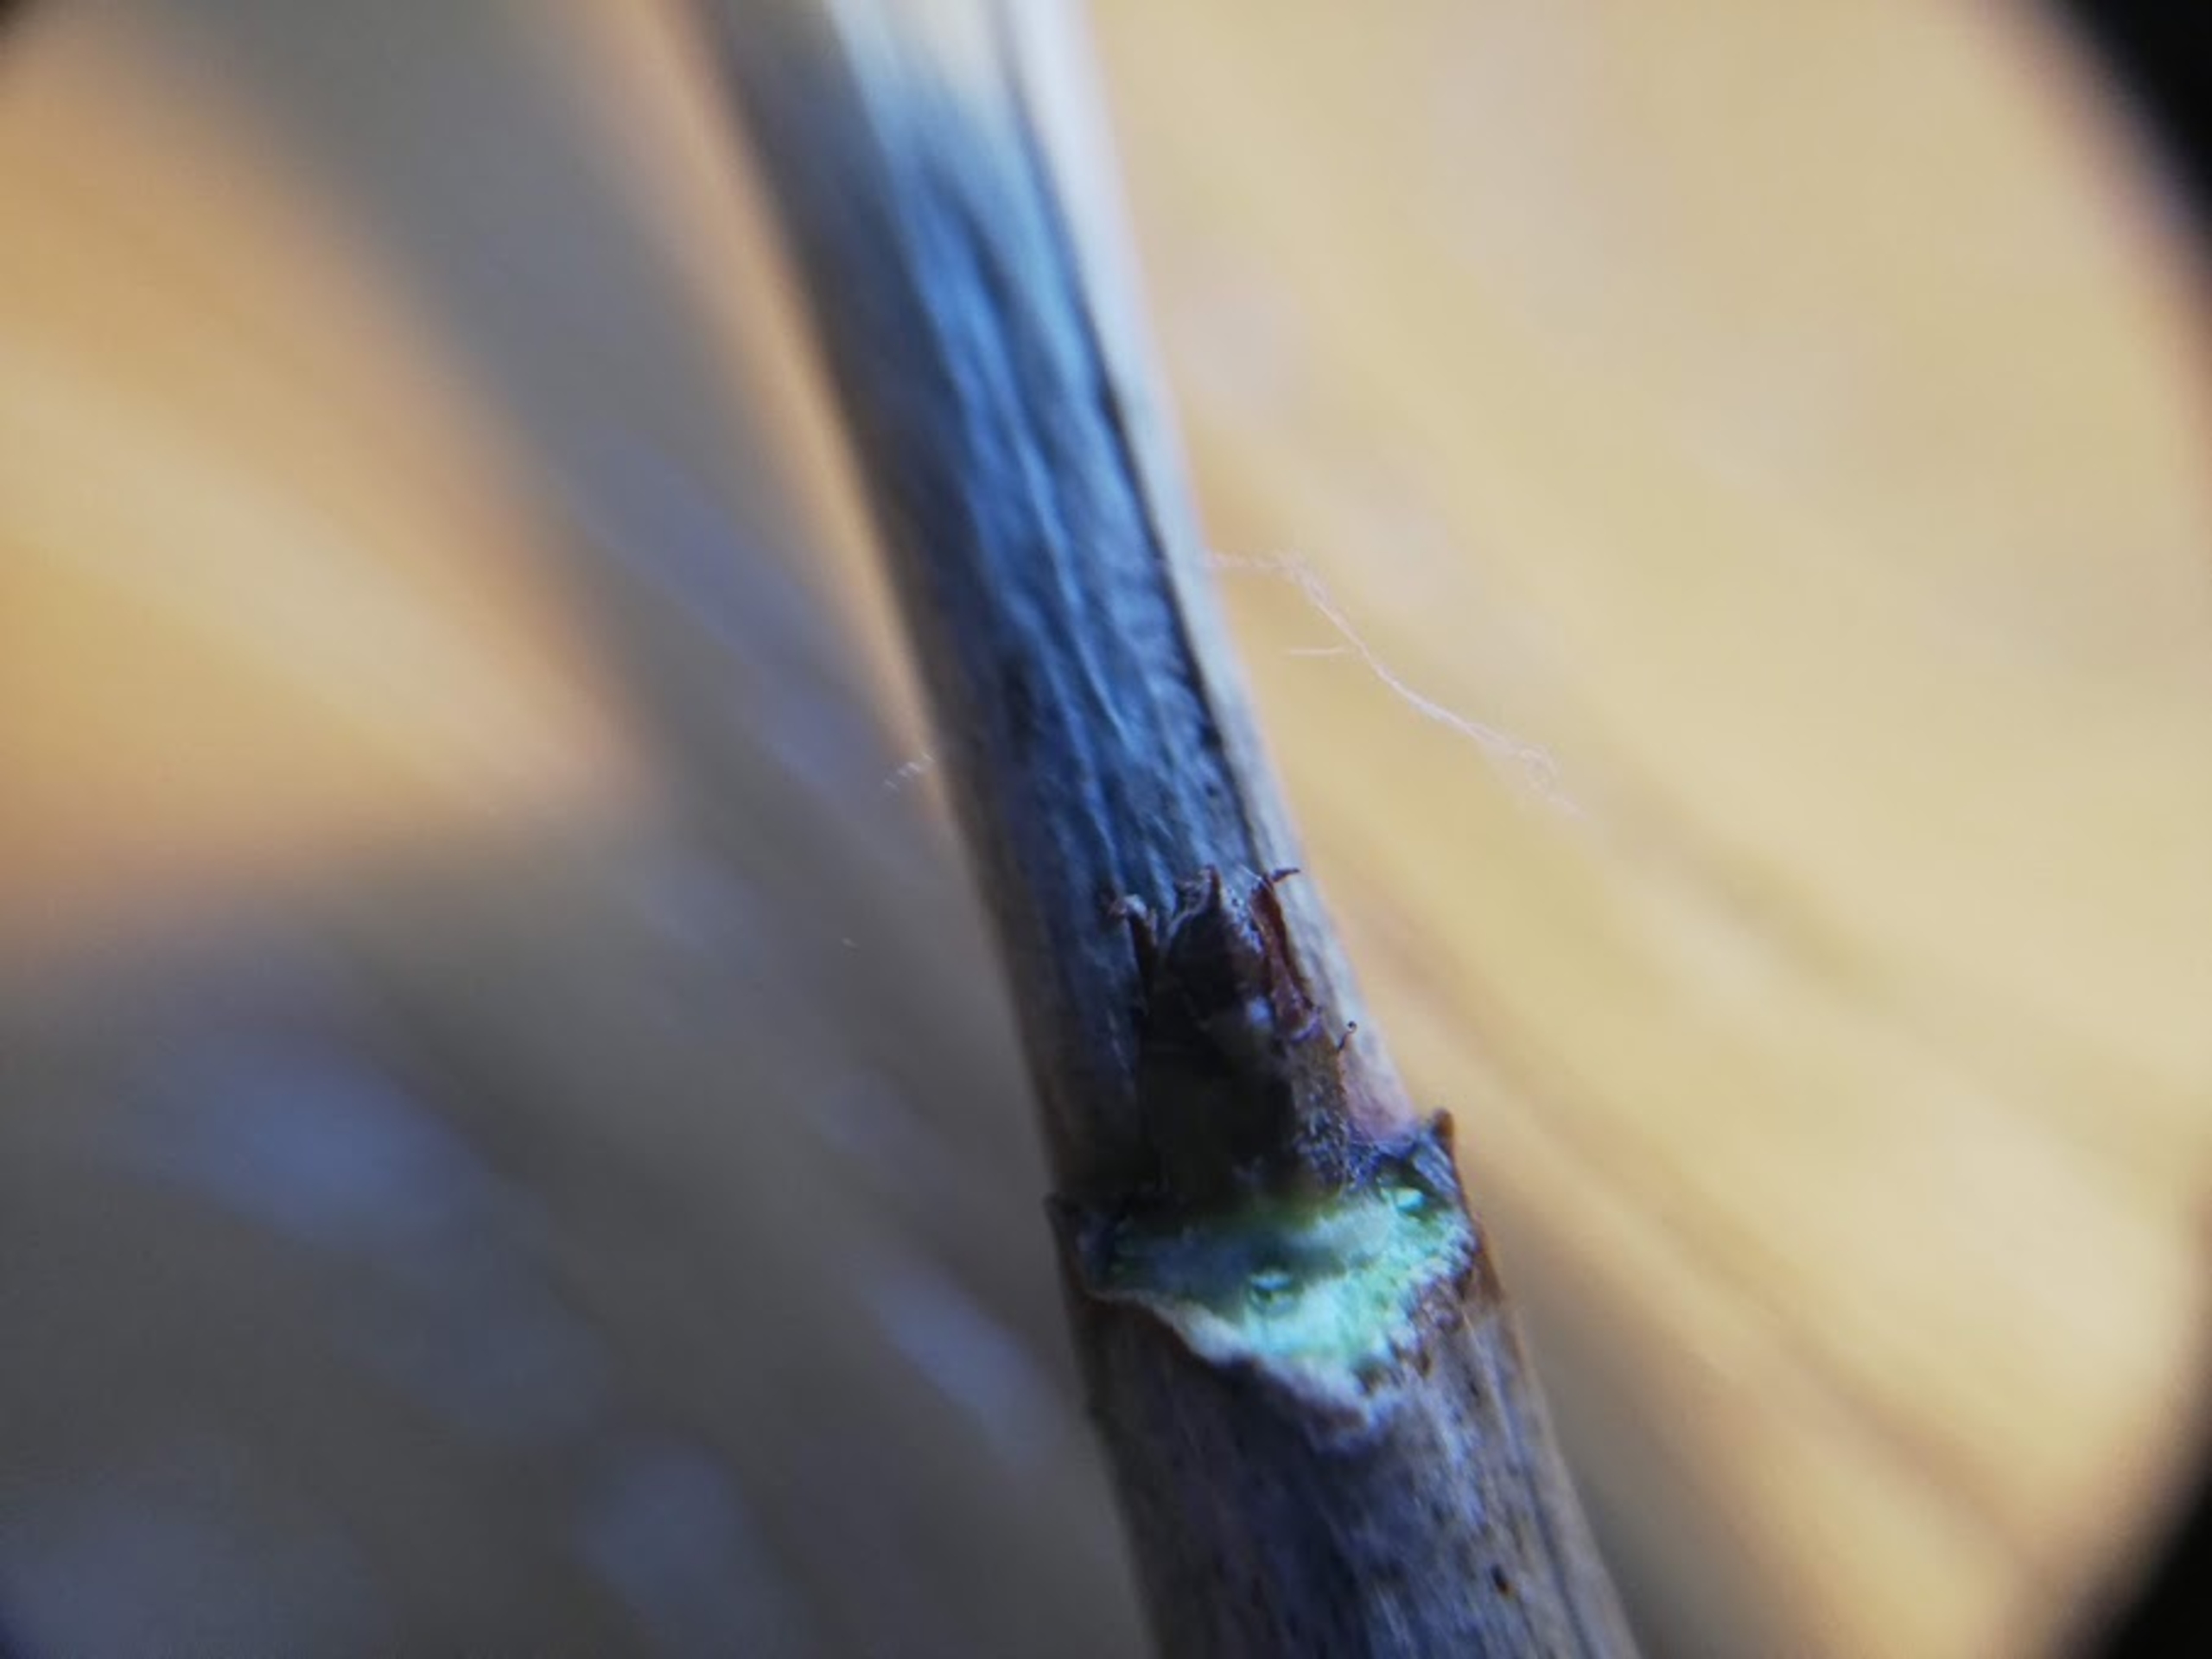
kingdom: Plantae
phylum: Tracheophyta
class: Magnoliopsida
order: Saxifragales
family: Grossulariaceae
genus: Ribes
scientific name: Ribes
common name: Ribsslægten
